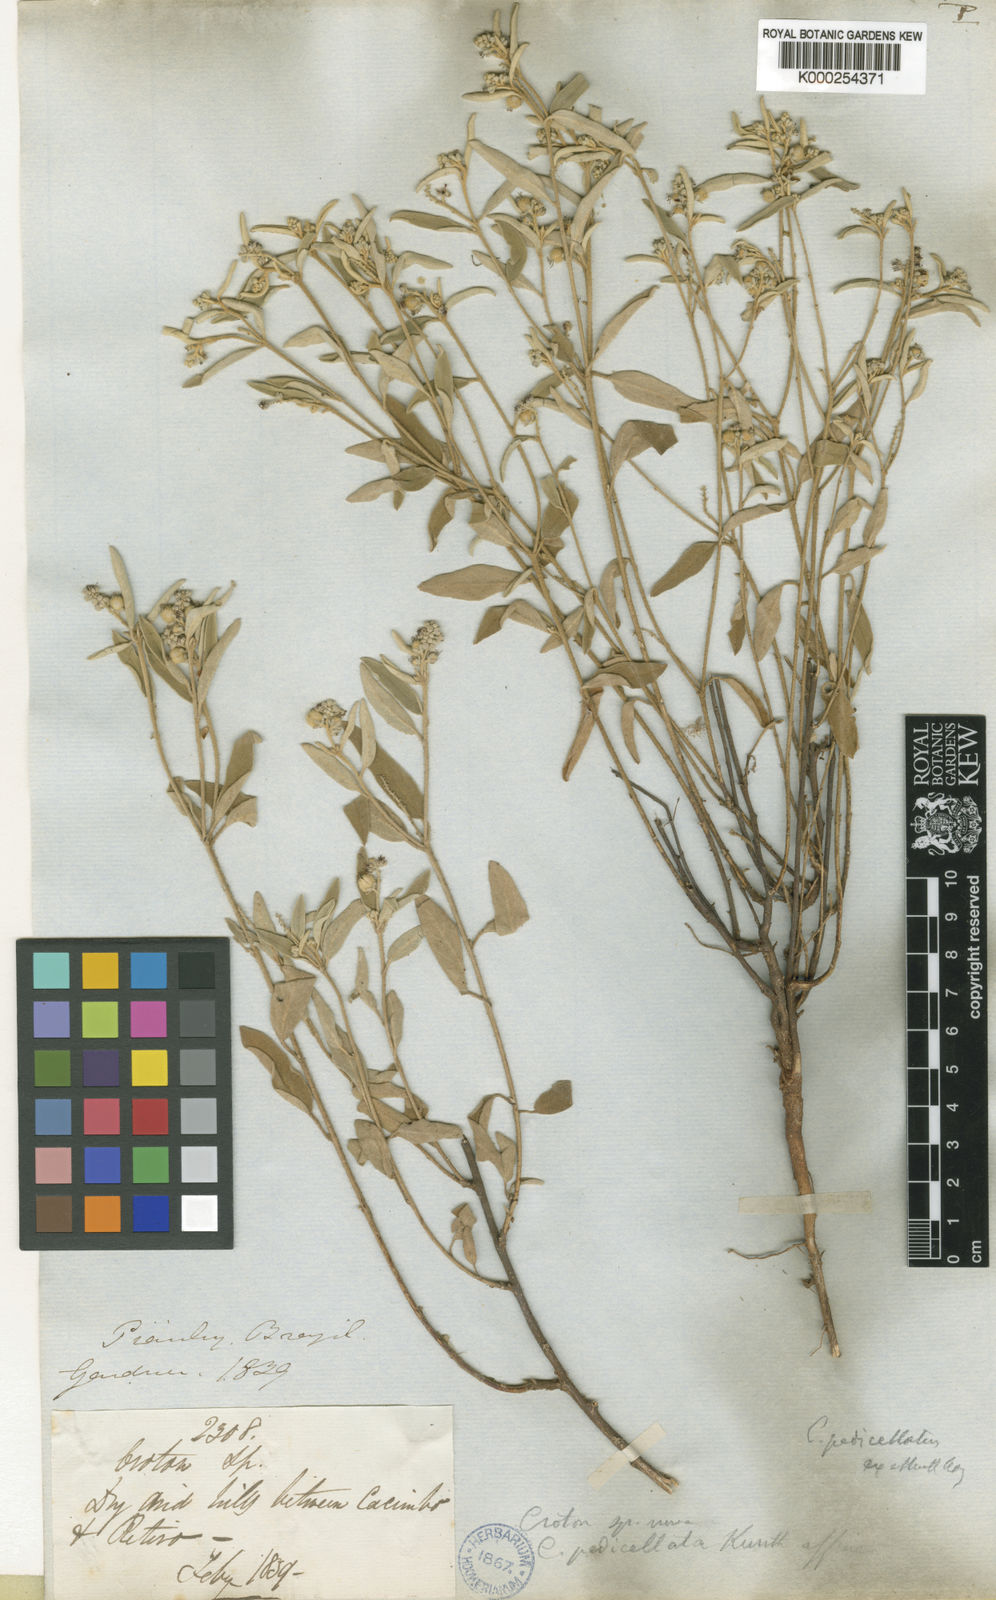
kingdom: Plantae
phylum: Tracheophyta
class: Magnoliopsida
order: Malpighiales
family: Euphorbiaceae
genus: Croton
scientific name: Croton pedicellatus
